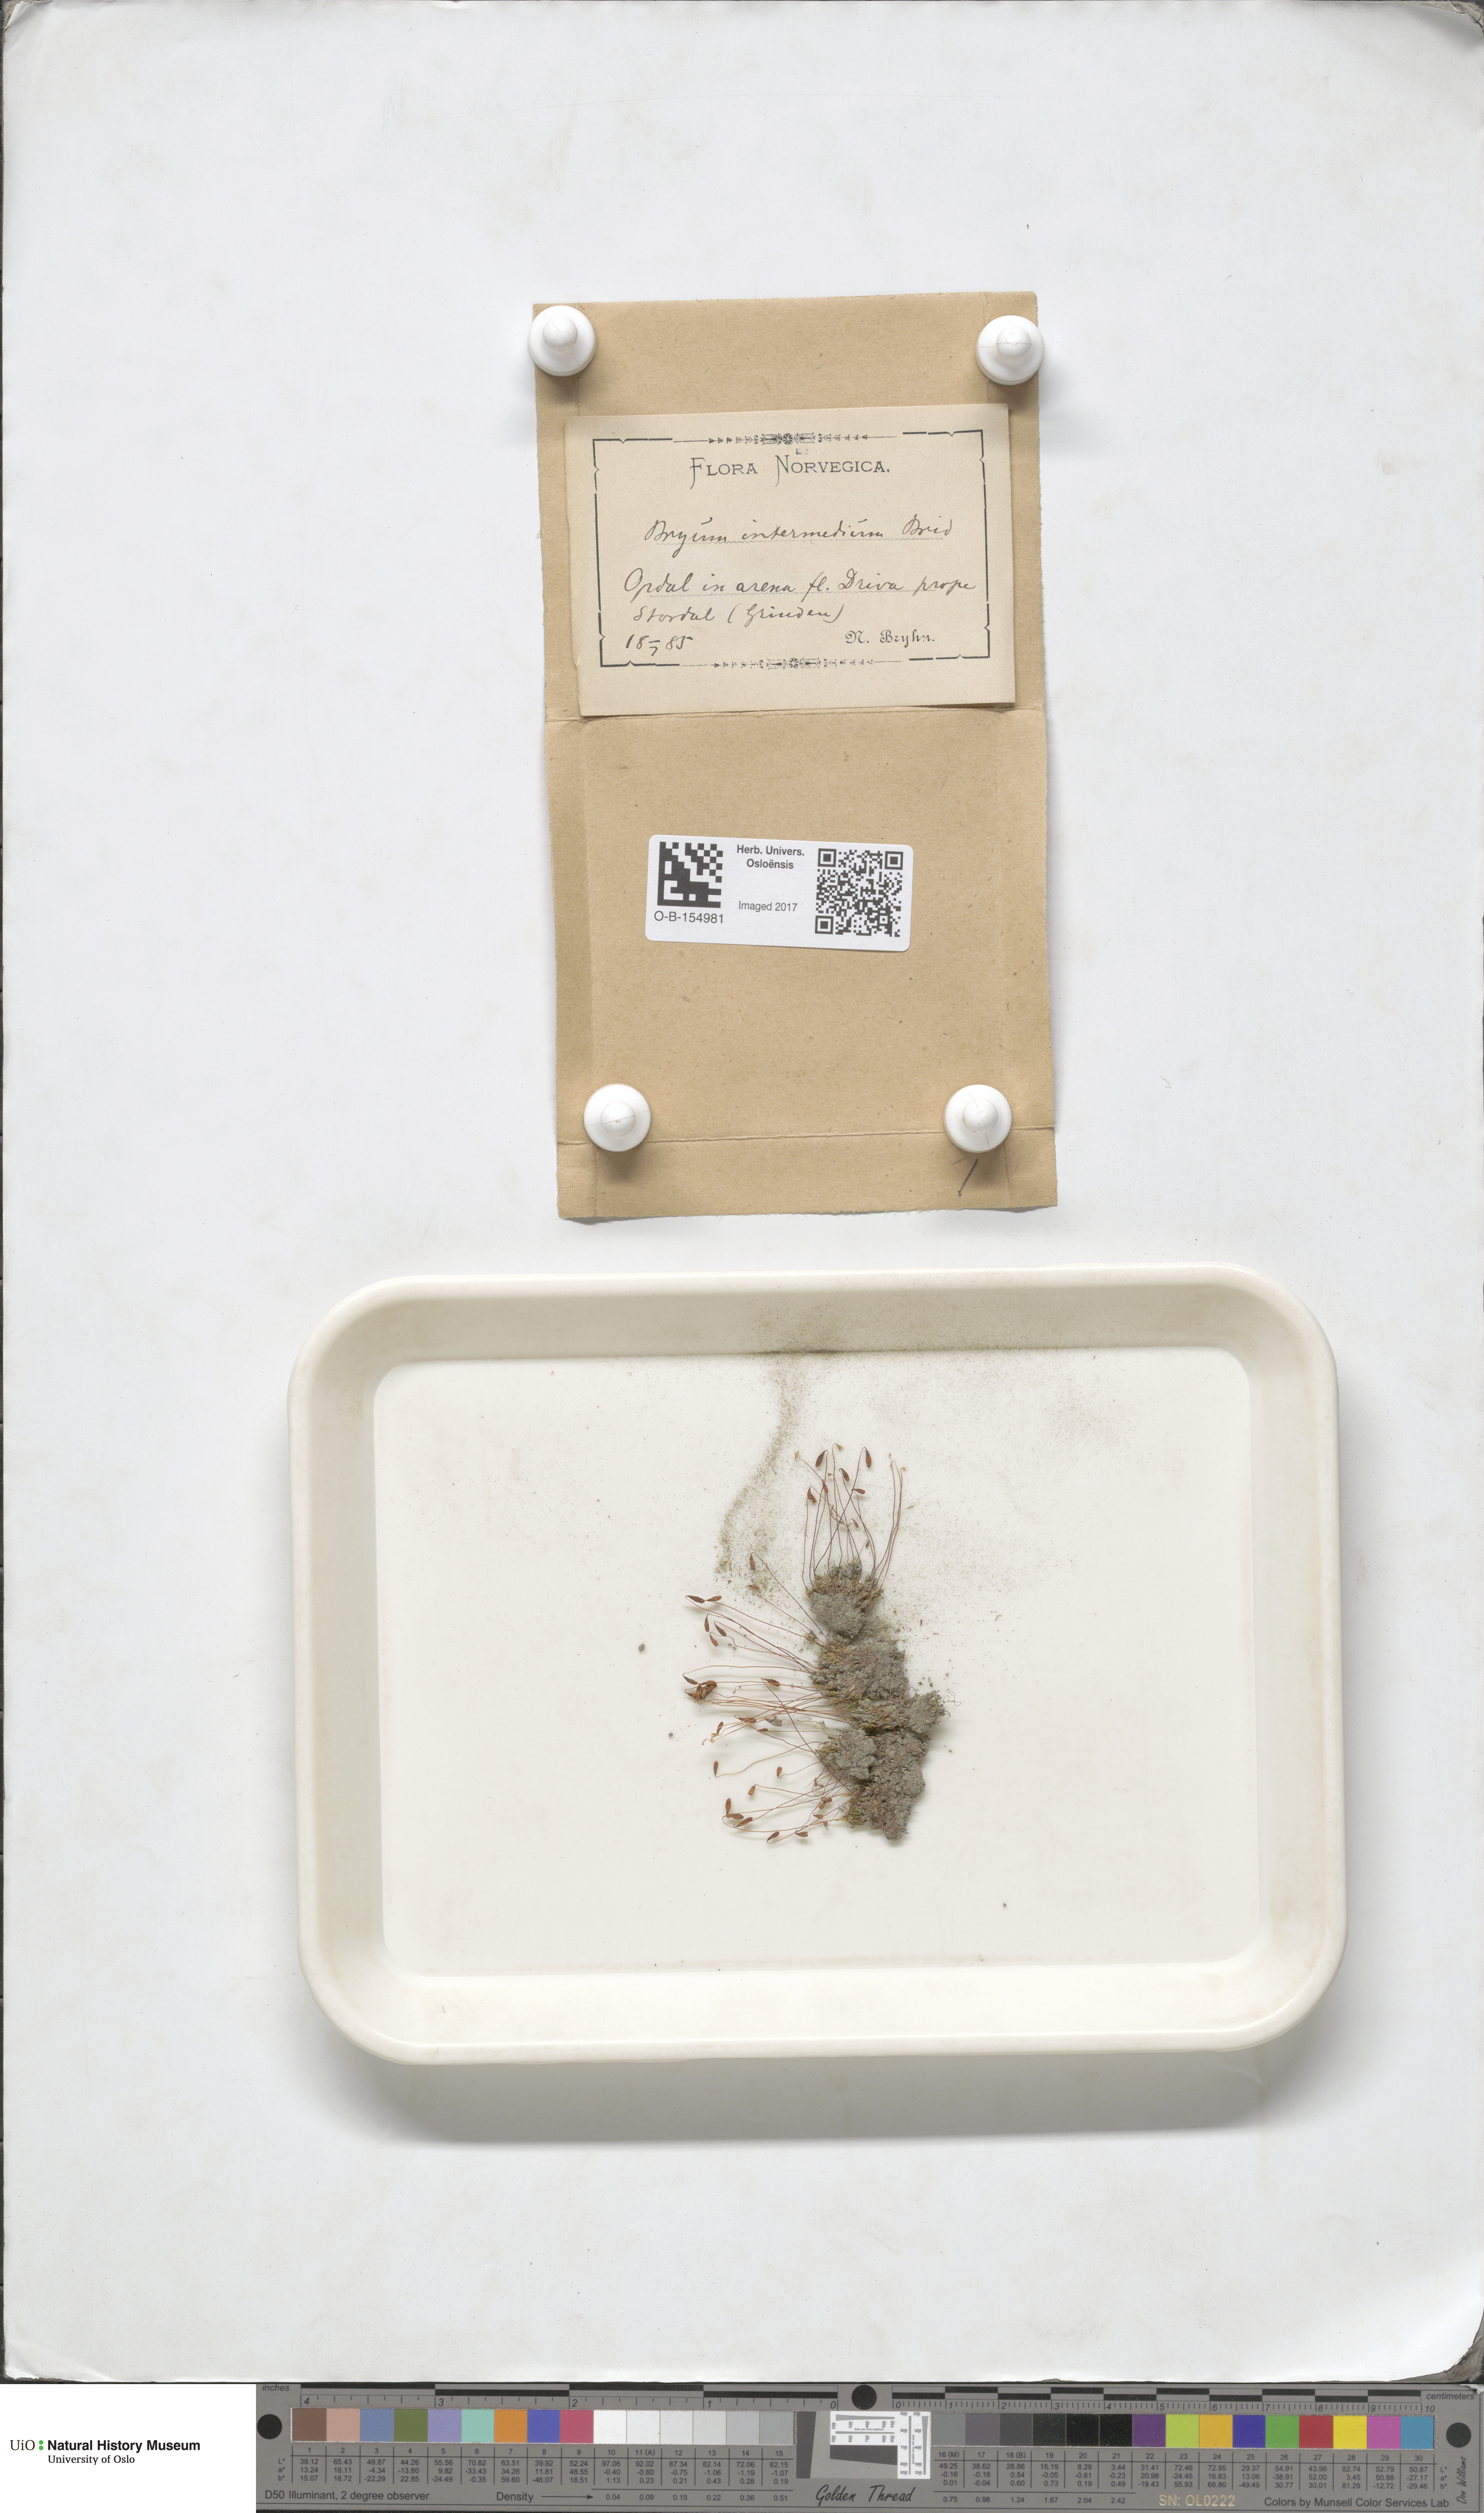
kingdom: Plantae
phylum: Bryophyta
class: Bryopsida
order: Bryales
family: Bryaceae
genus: Ptychostomum
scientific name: Ptychostomum intermedium
